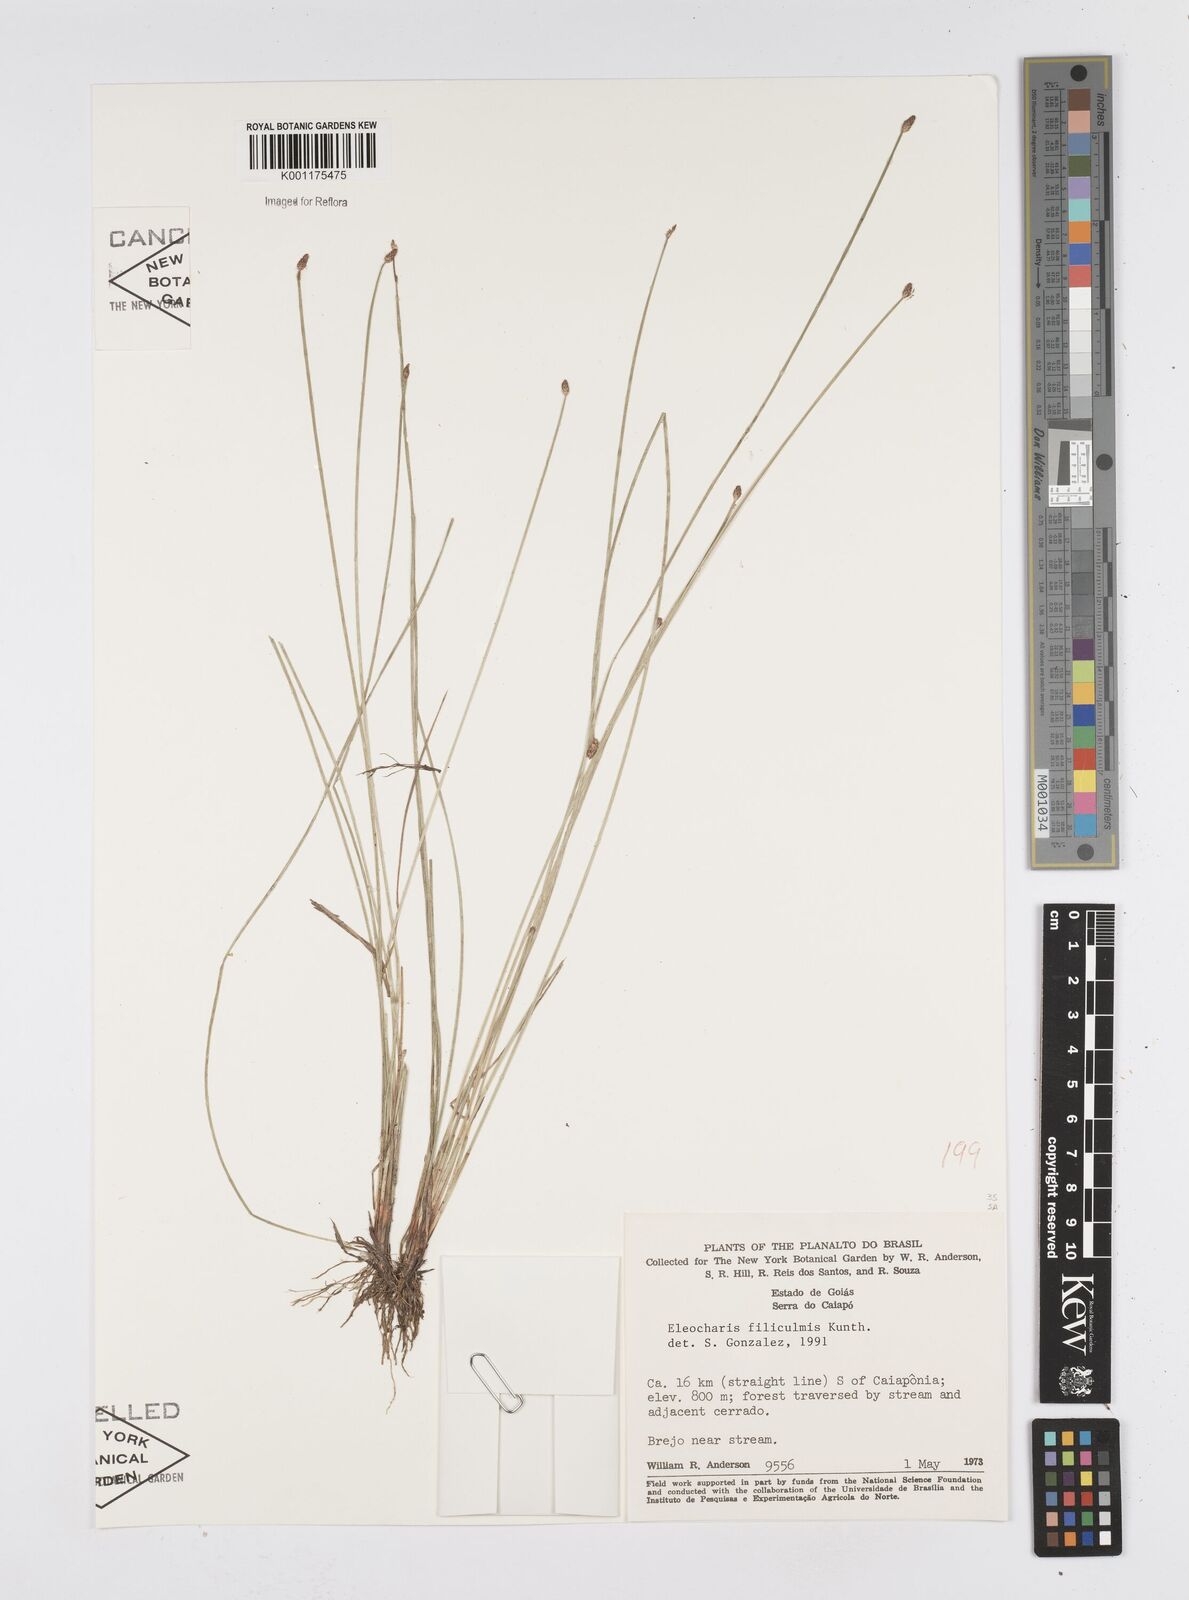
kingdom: Plantae
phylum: Tracheophyta
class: Liliopsida
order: Poales
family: Cyperaceae
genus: Eleocharis
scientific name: Eleocharis filiculmis
